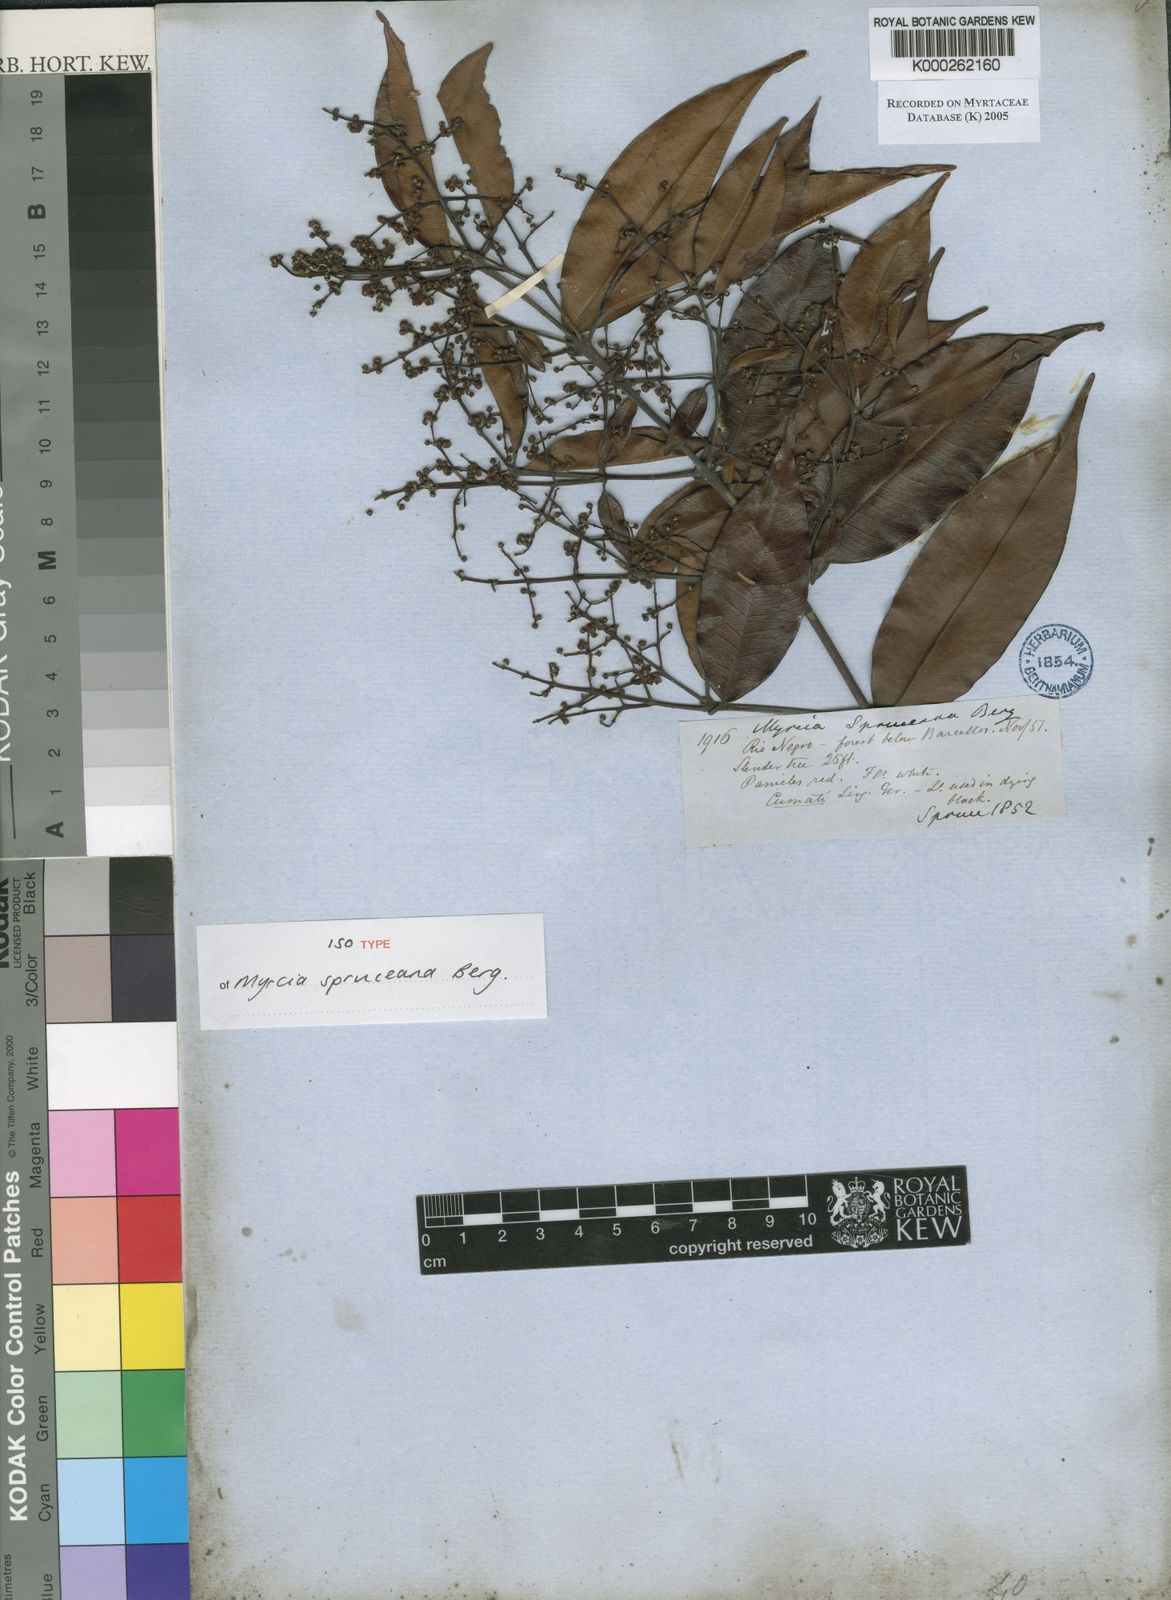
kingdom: Plantae
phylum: Tracheophyta
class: Magnoliopsida
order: Myrtales
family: Myrtaceae
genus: Myrcia
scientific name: Myrcia splendens
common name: Surinam cherry
